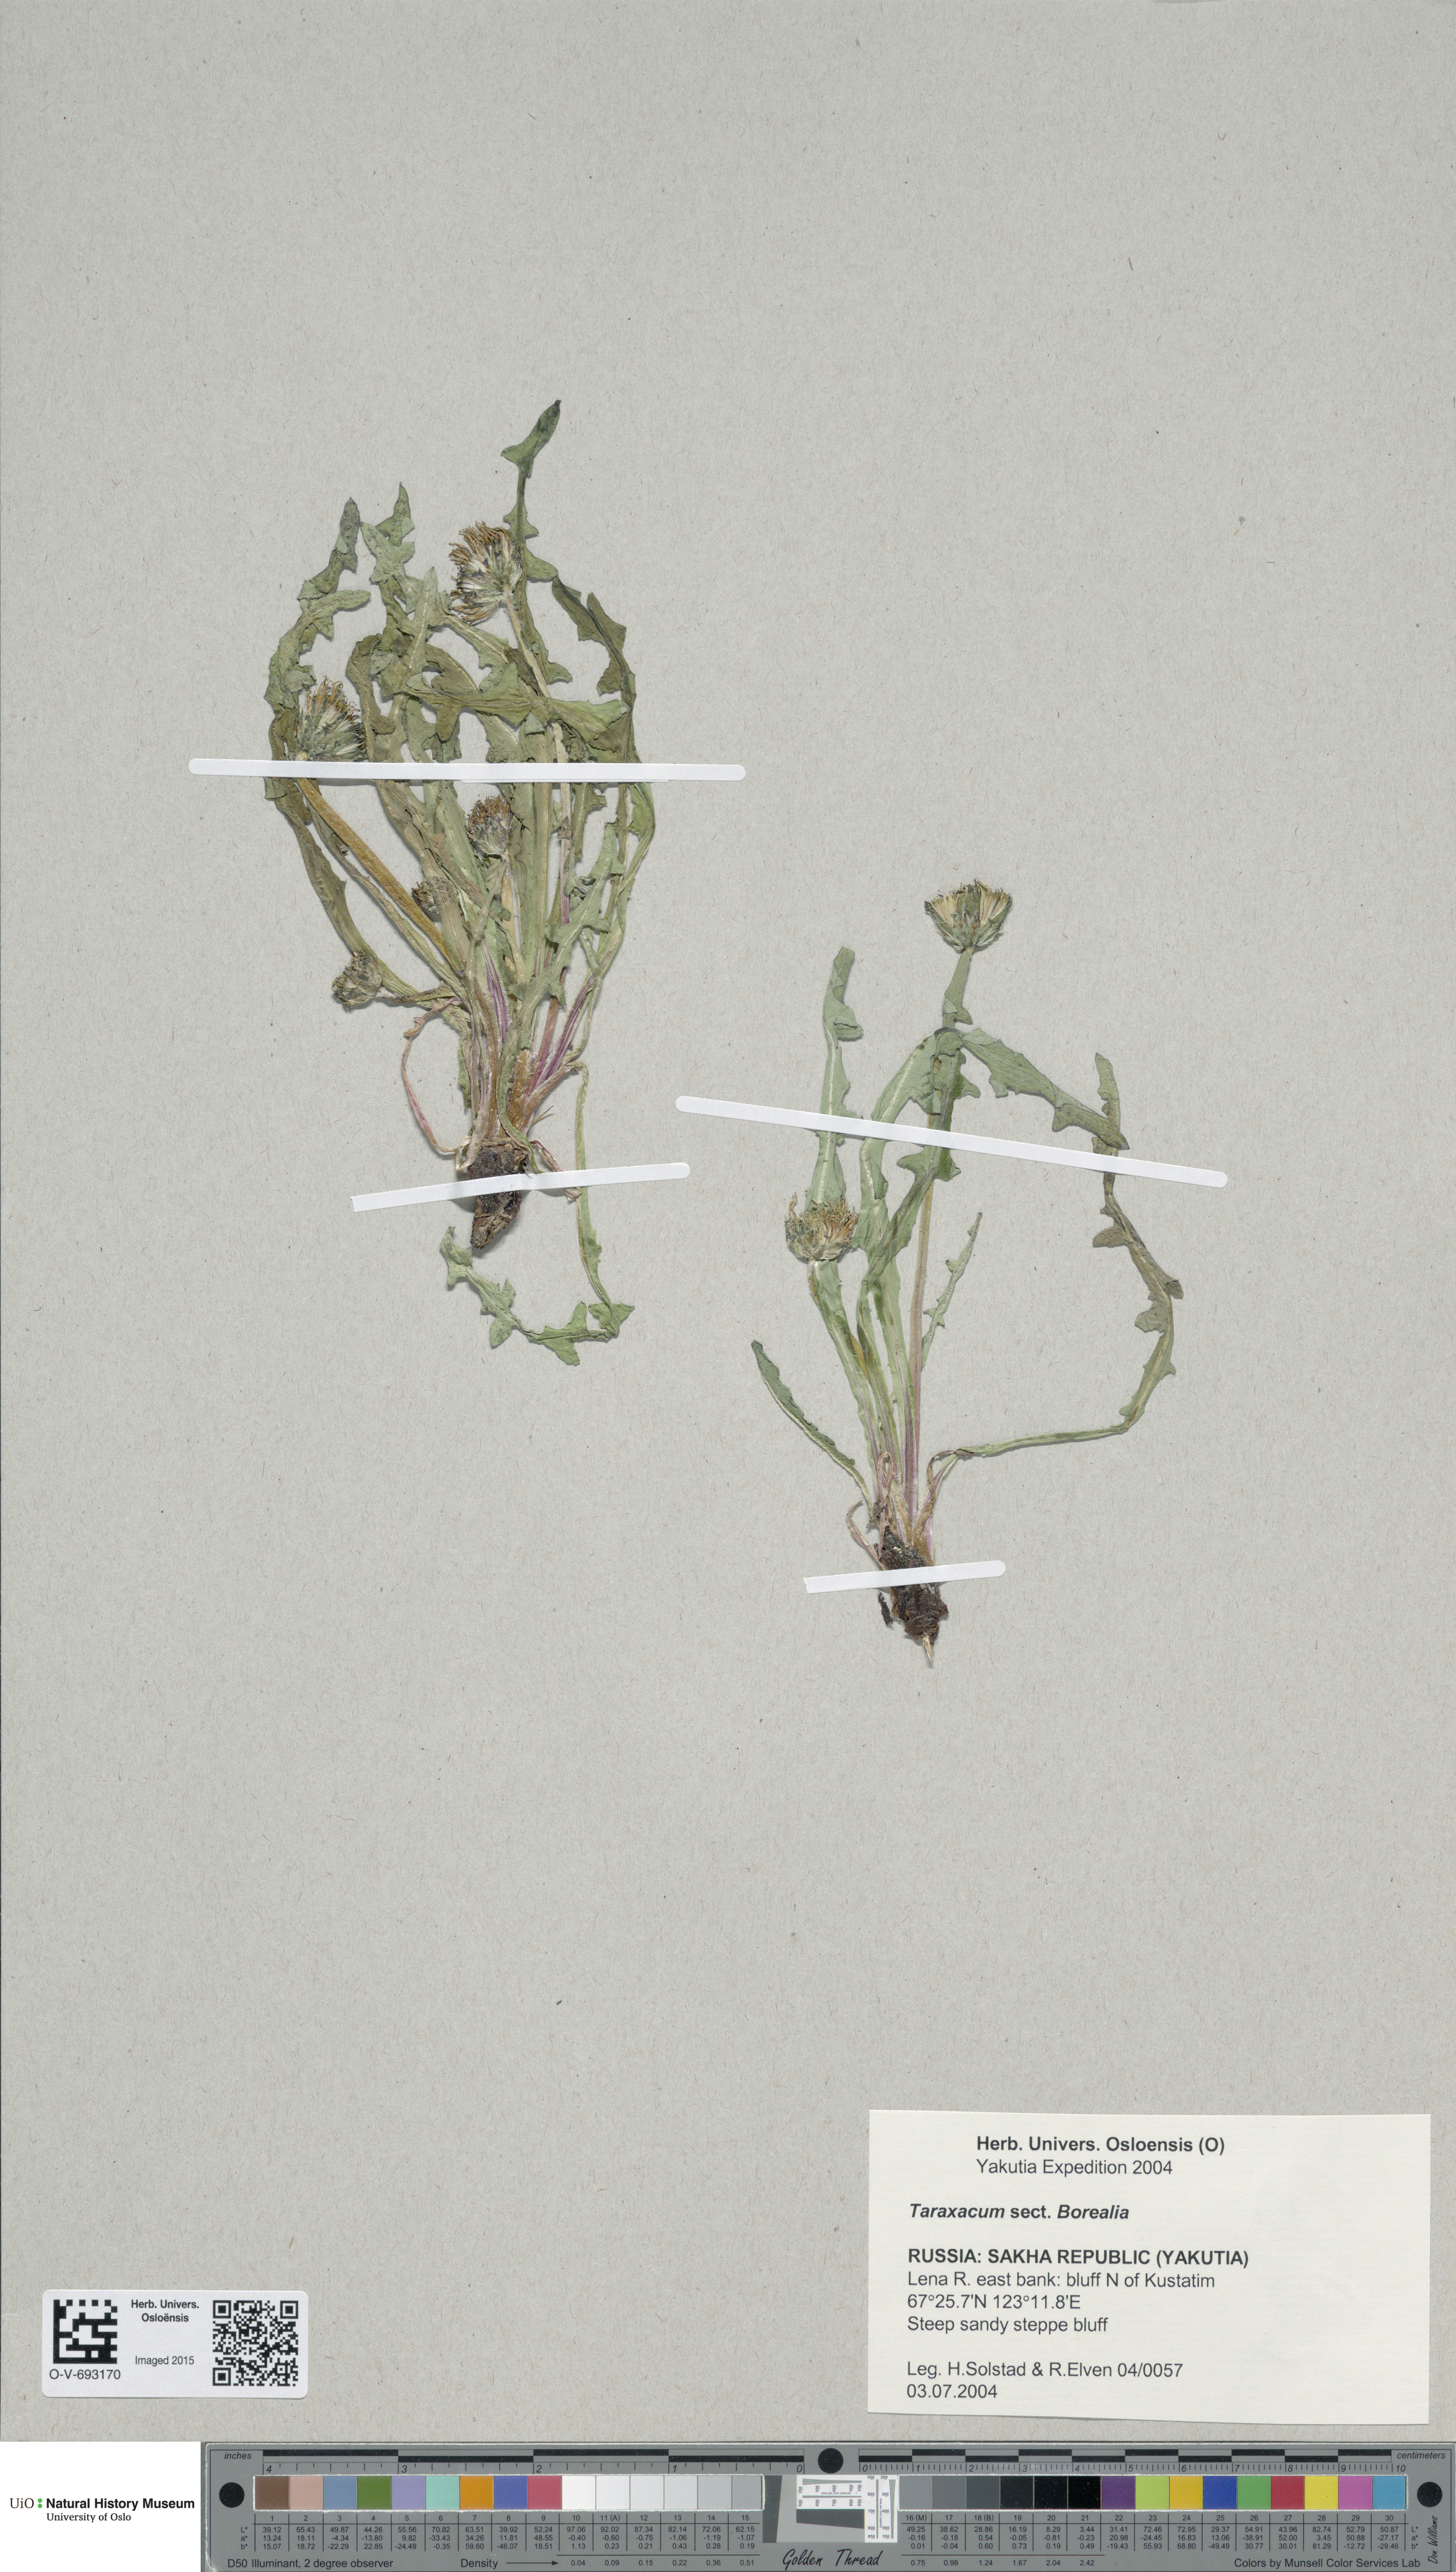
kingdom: Plantae
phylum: Tracheophyta
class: Magnoliopsida
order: Asterales
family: Asteraceae
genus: Taraxacum
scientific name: Taraxacum borealia
